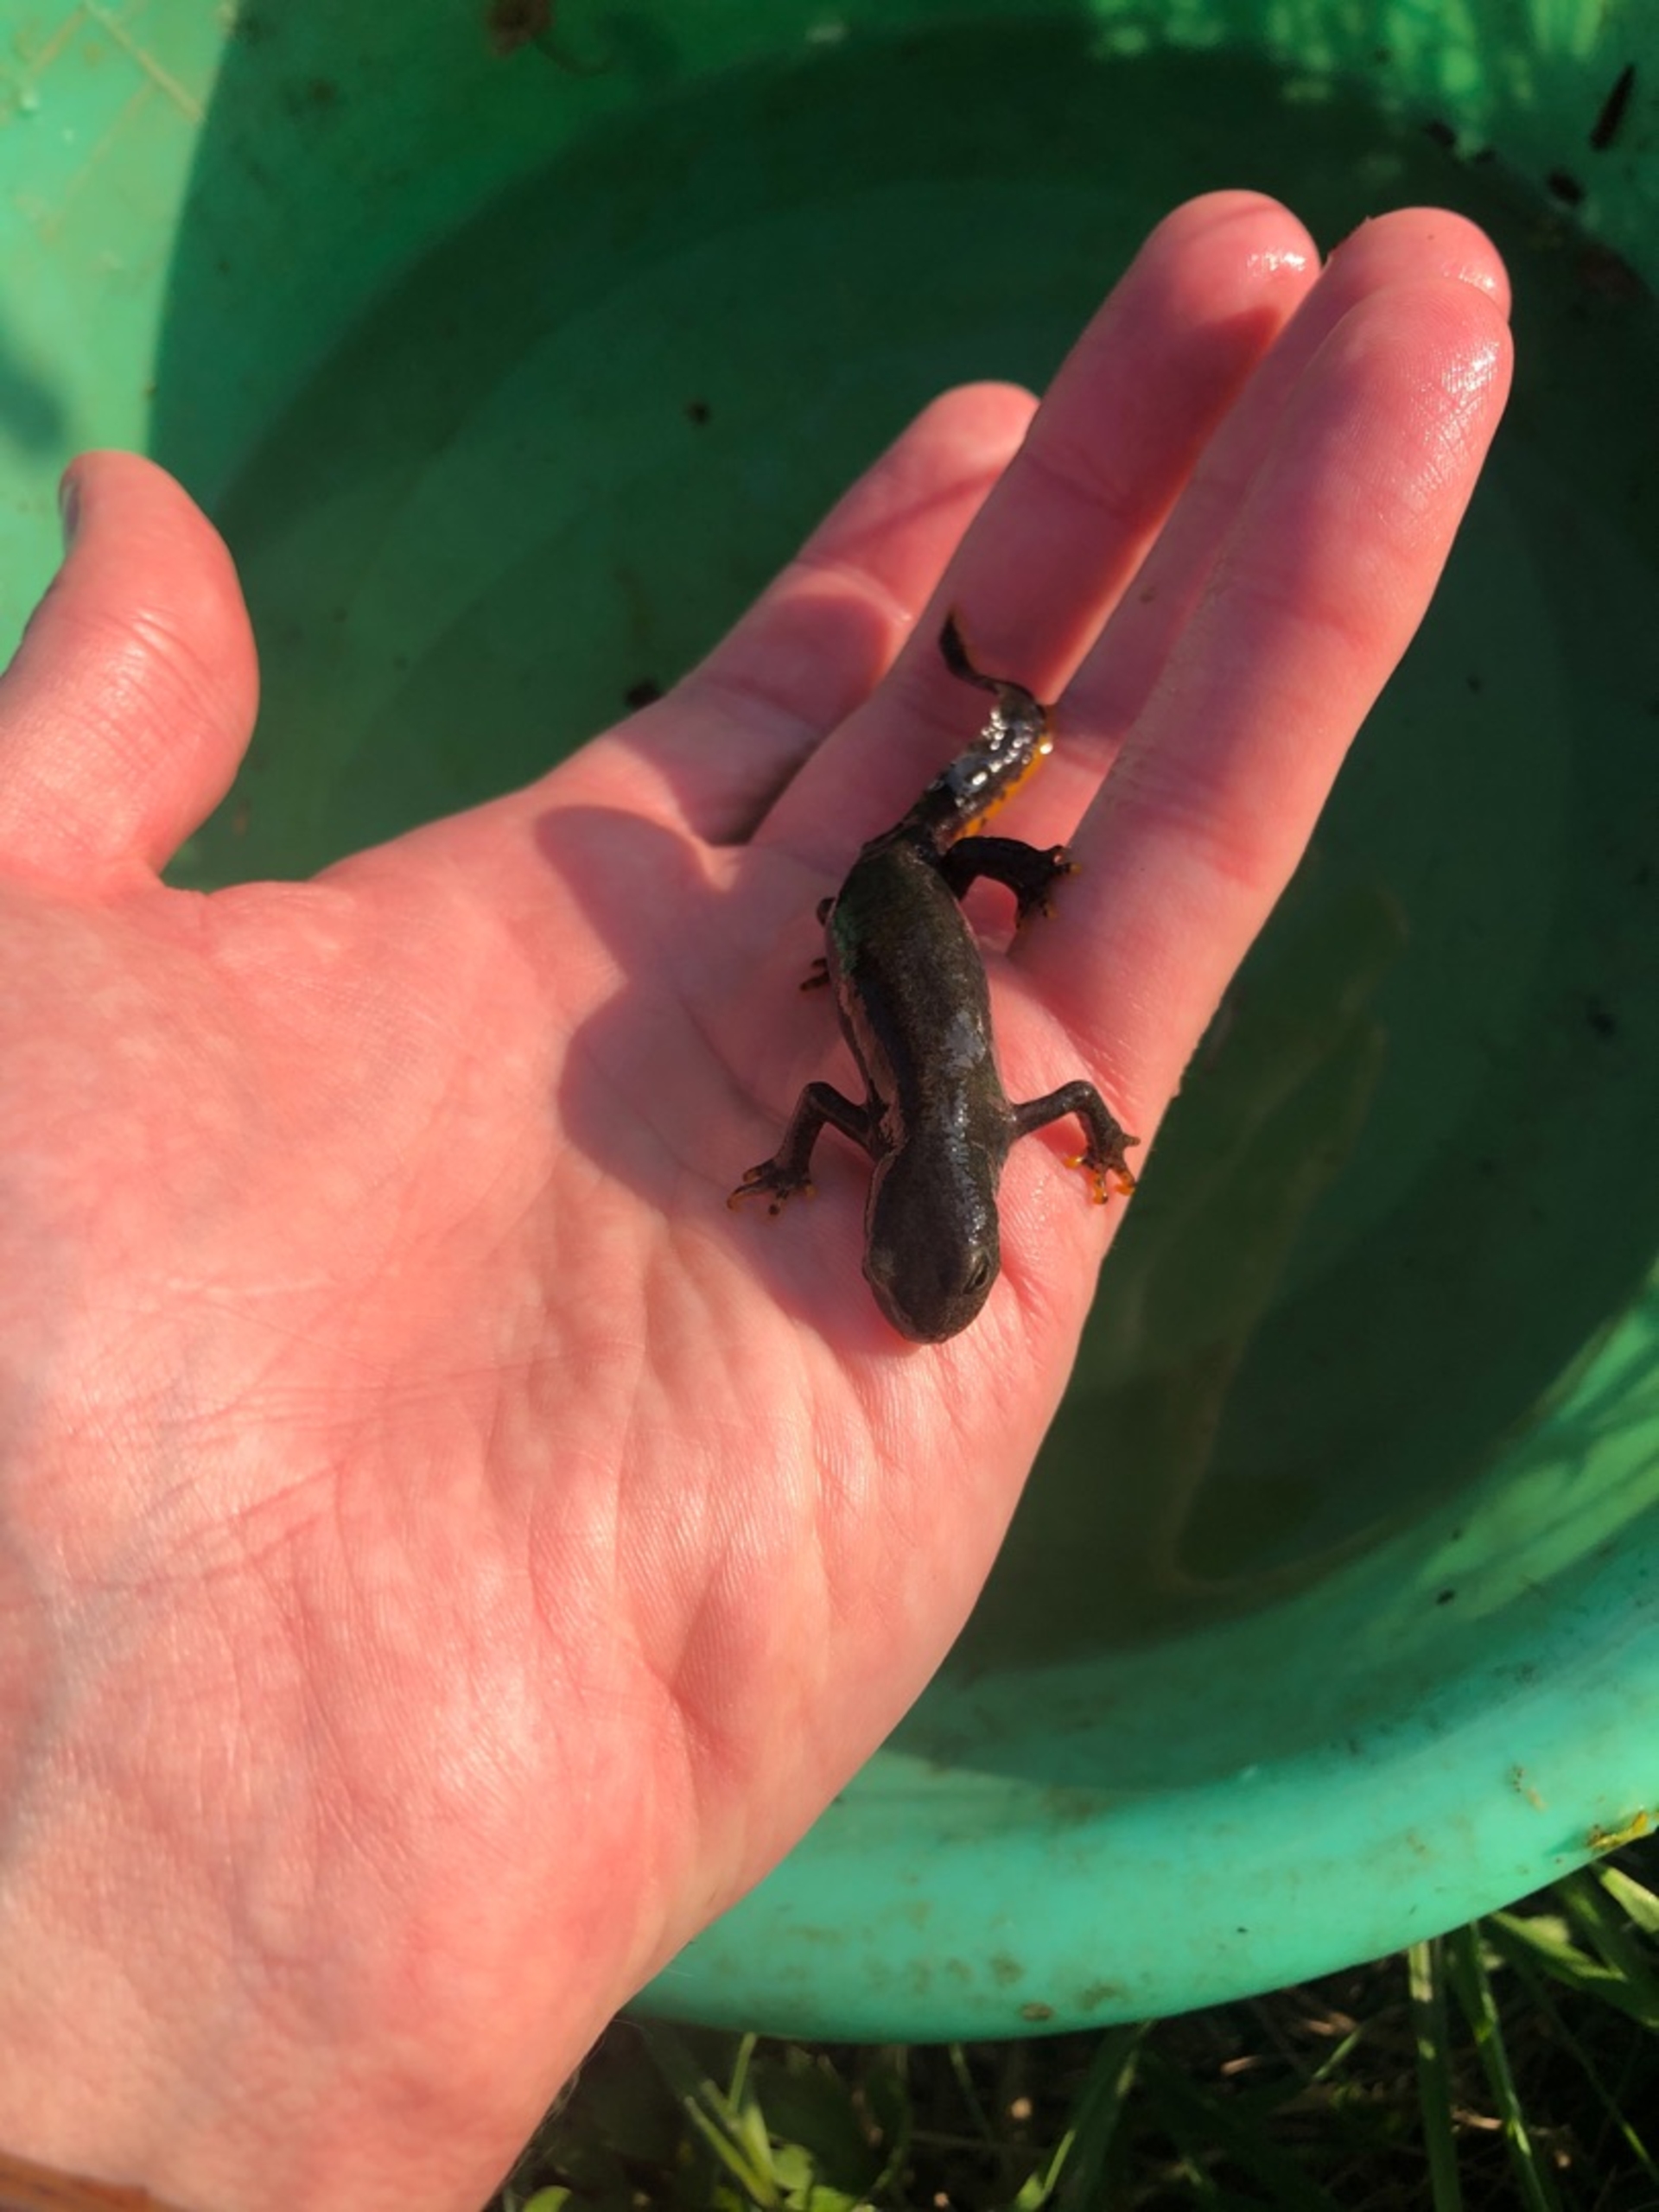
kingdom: Animalia
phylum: Chordata
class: Amphibia
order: Caudata
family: Salamandridae
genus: Ichthyosaura
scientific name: Ichthyosaura alpestris
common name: Bjergsalamander
